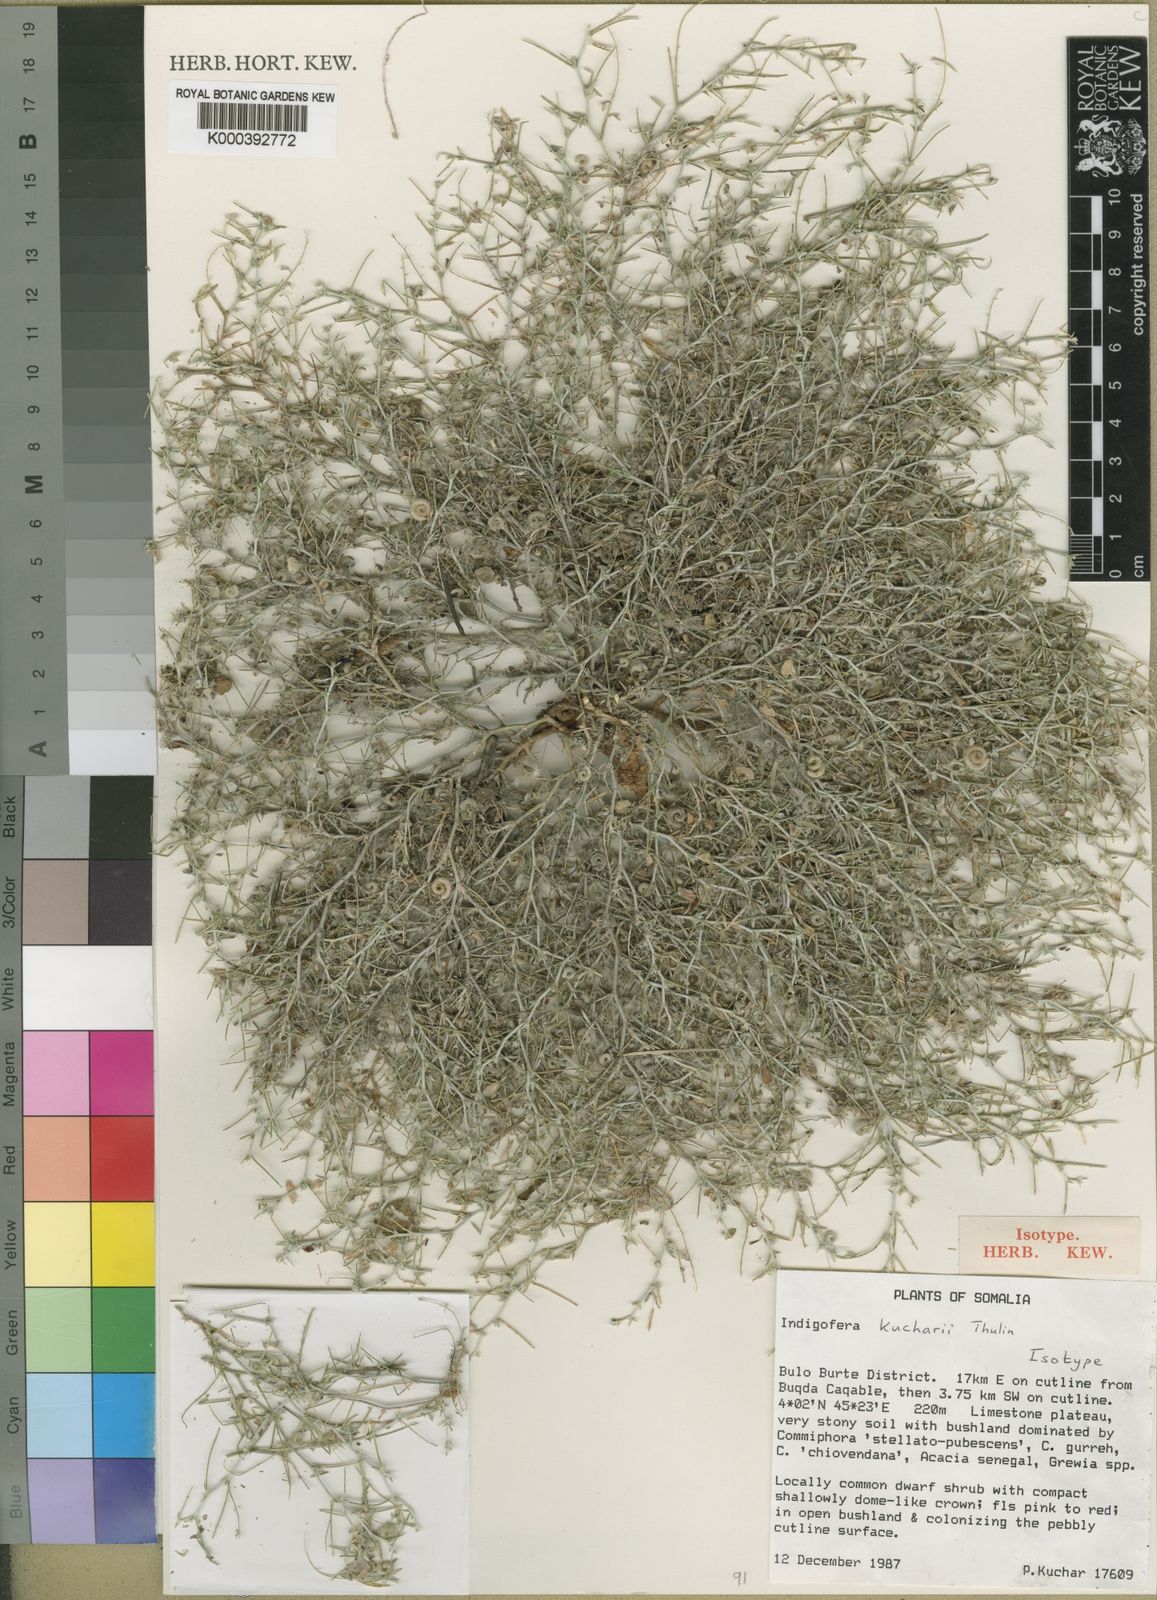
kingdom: Plantae
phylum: Tracheophyta
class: Magnoliopsida
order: Fabales
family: Fabaceae
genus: Microcharis
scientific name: Microcharis kucharii
